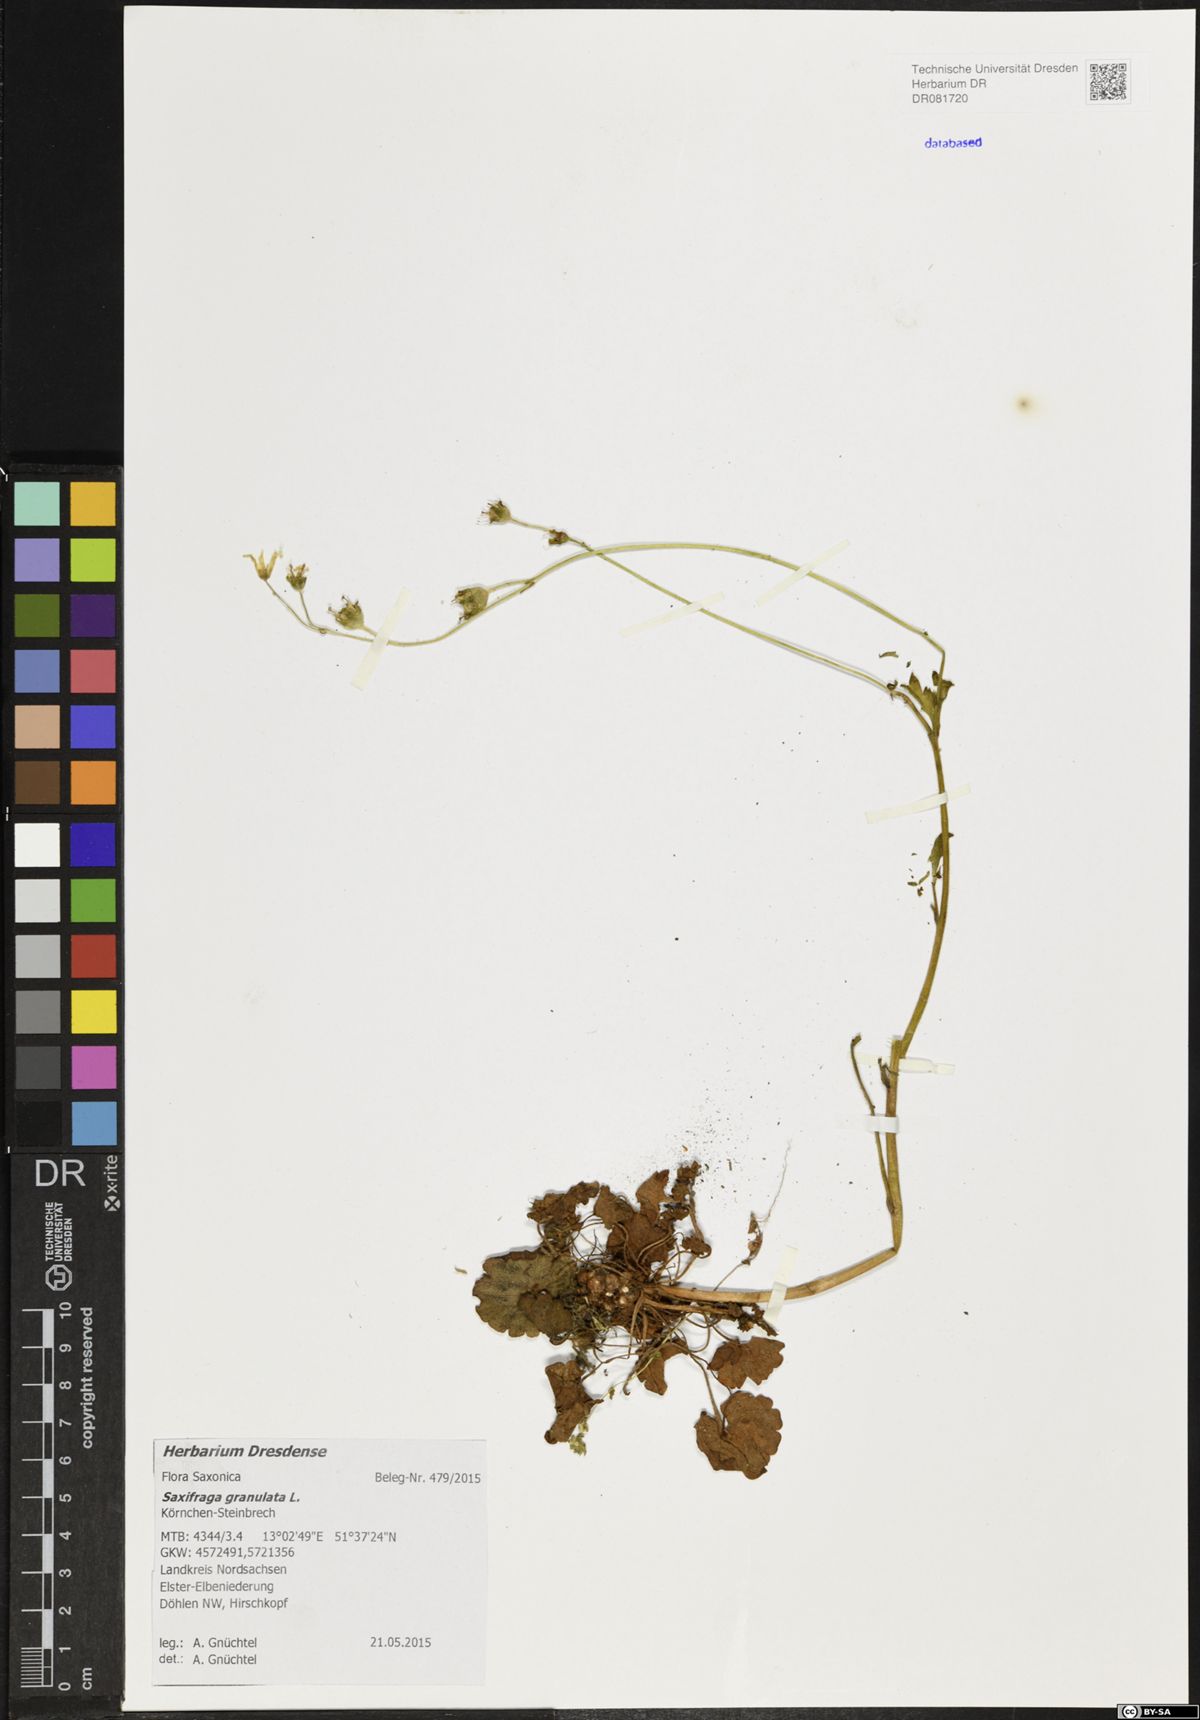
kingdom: Plantae
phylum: Tracheophyta
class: Magnoliopsida
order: Saxifragales
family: Saxifragaceae
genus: Saxifraga
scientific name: Saxifraga granulata
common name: Meadow saxifrage
